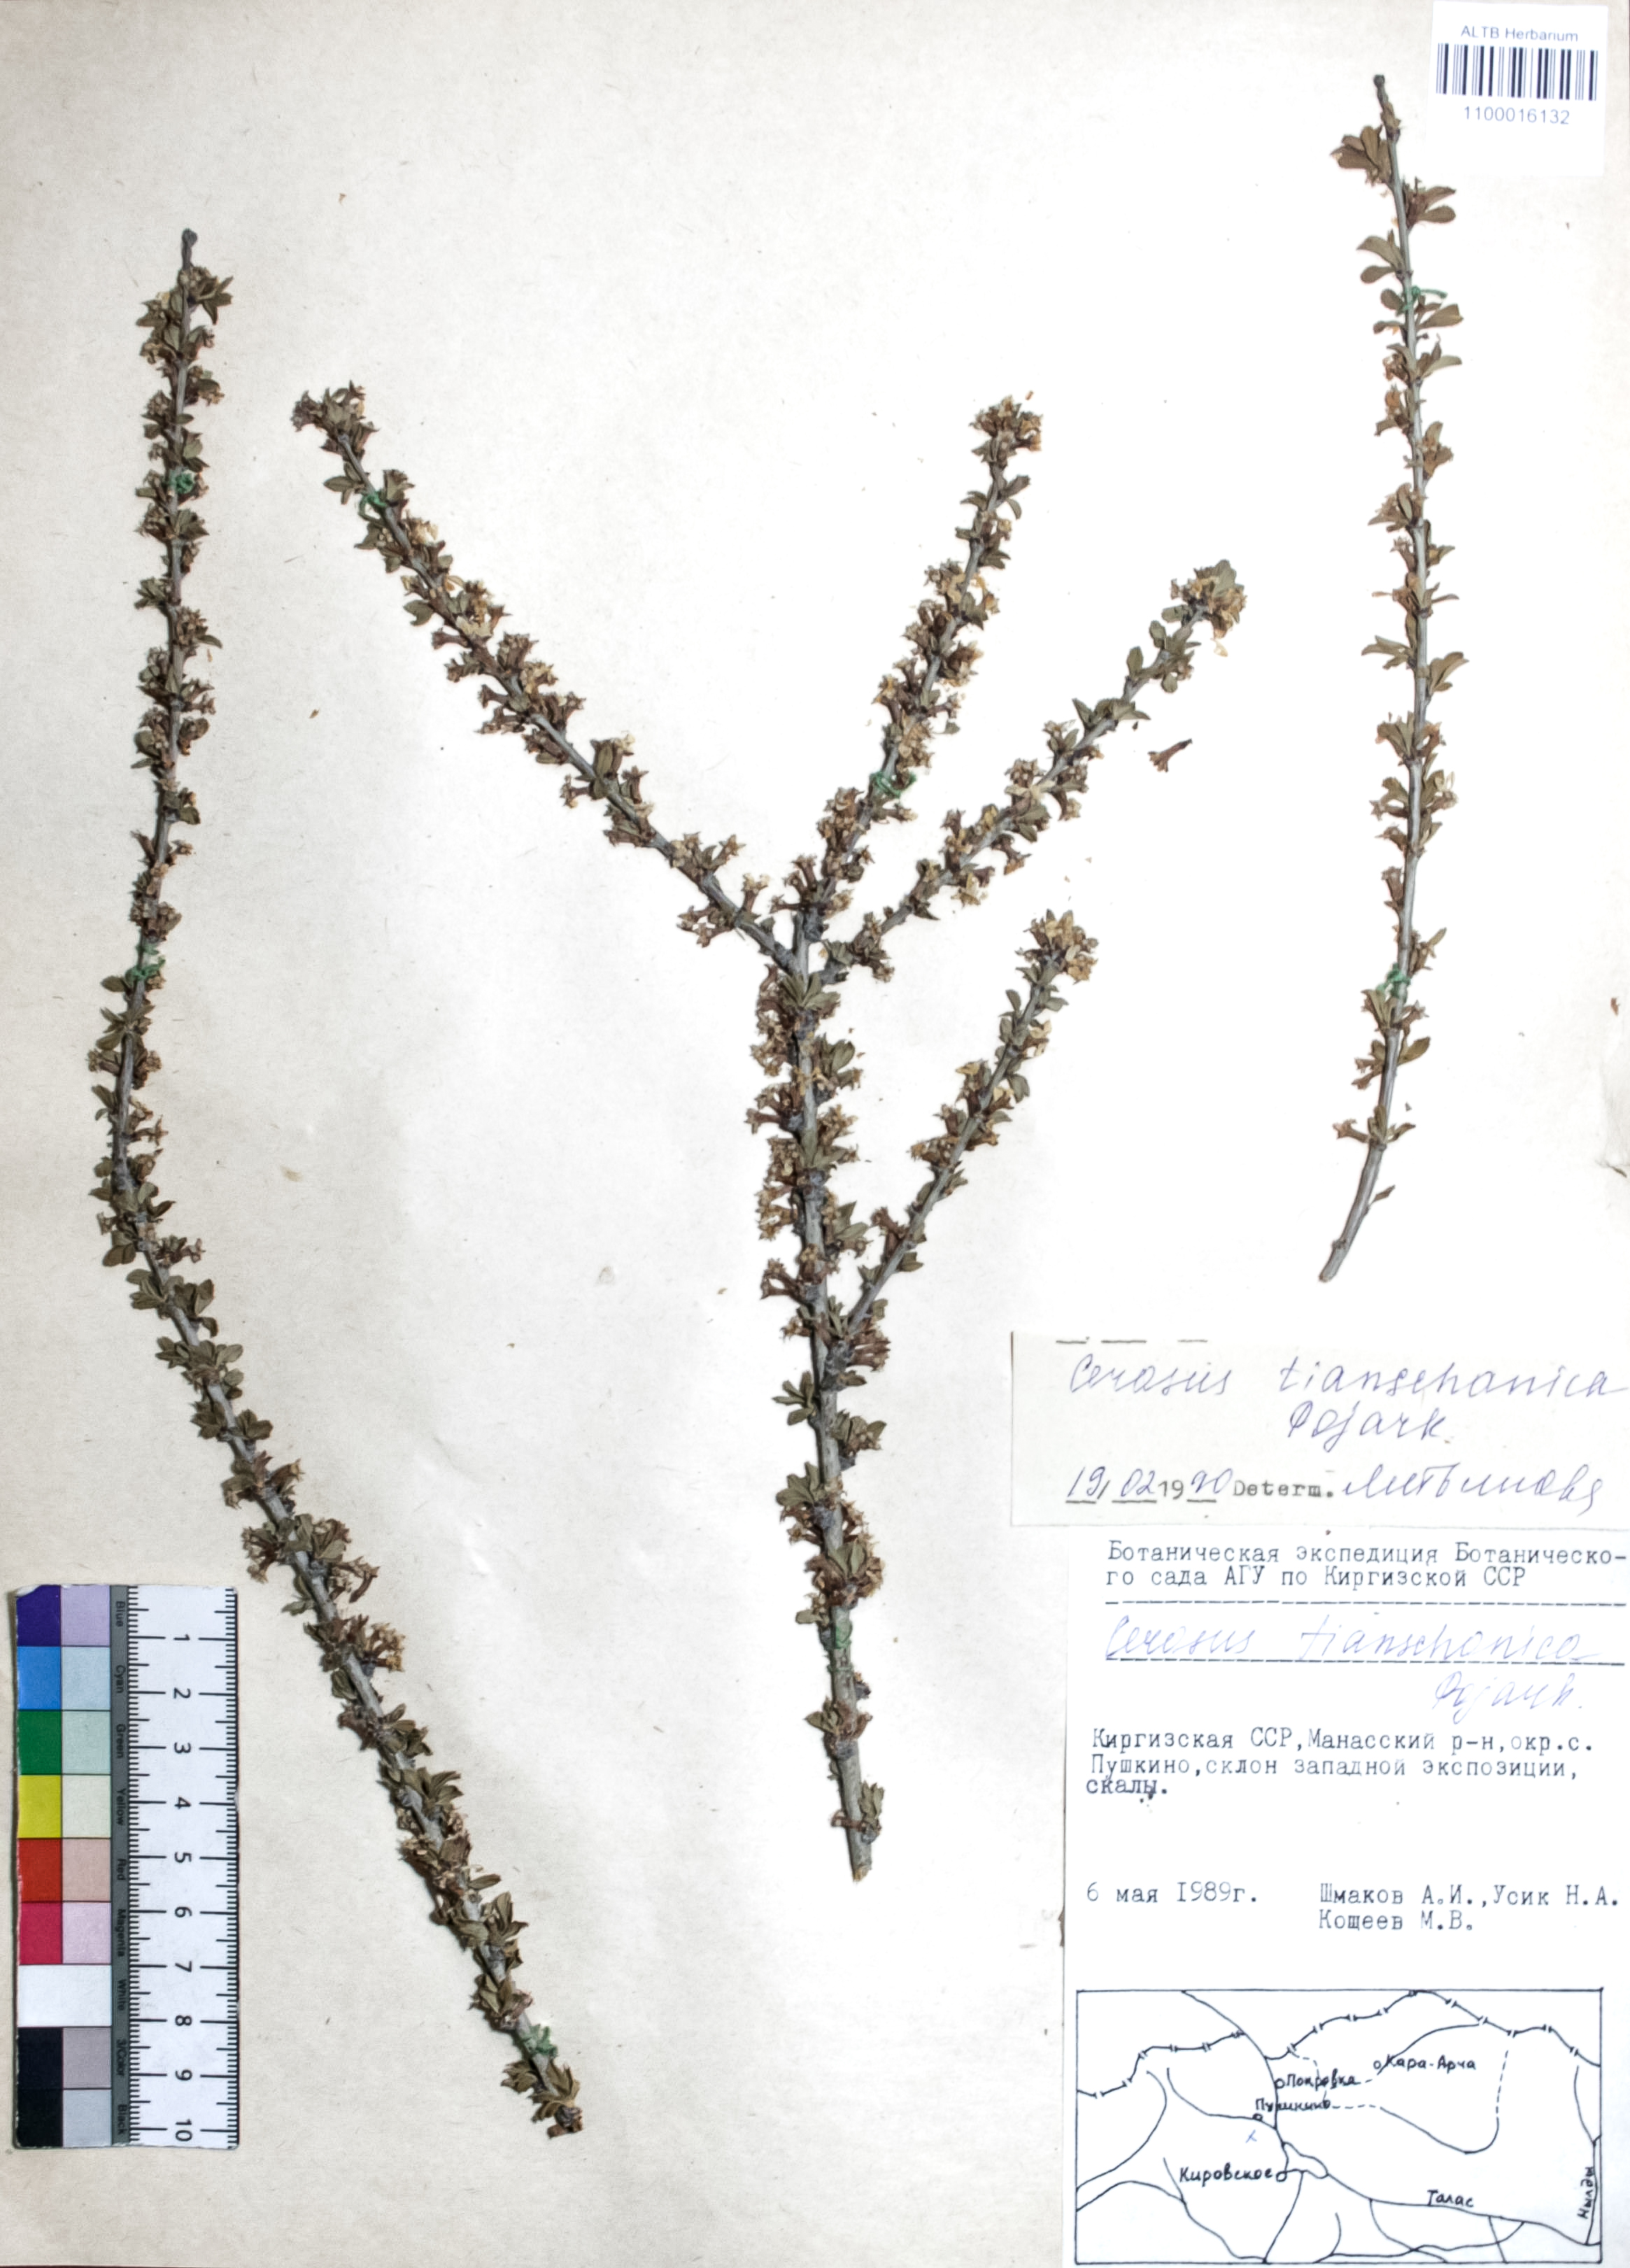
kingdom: Plantae
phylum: Tracheophyta
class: Magnoliopsida
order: Rosales
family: Rosaceae
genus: Prunus
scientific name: Prunus griffithii
